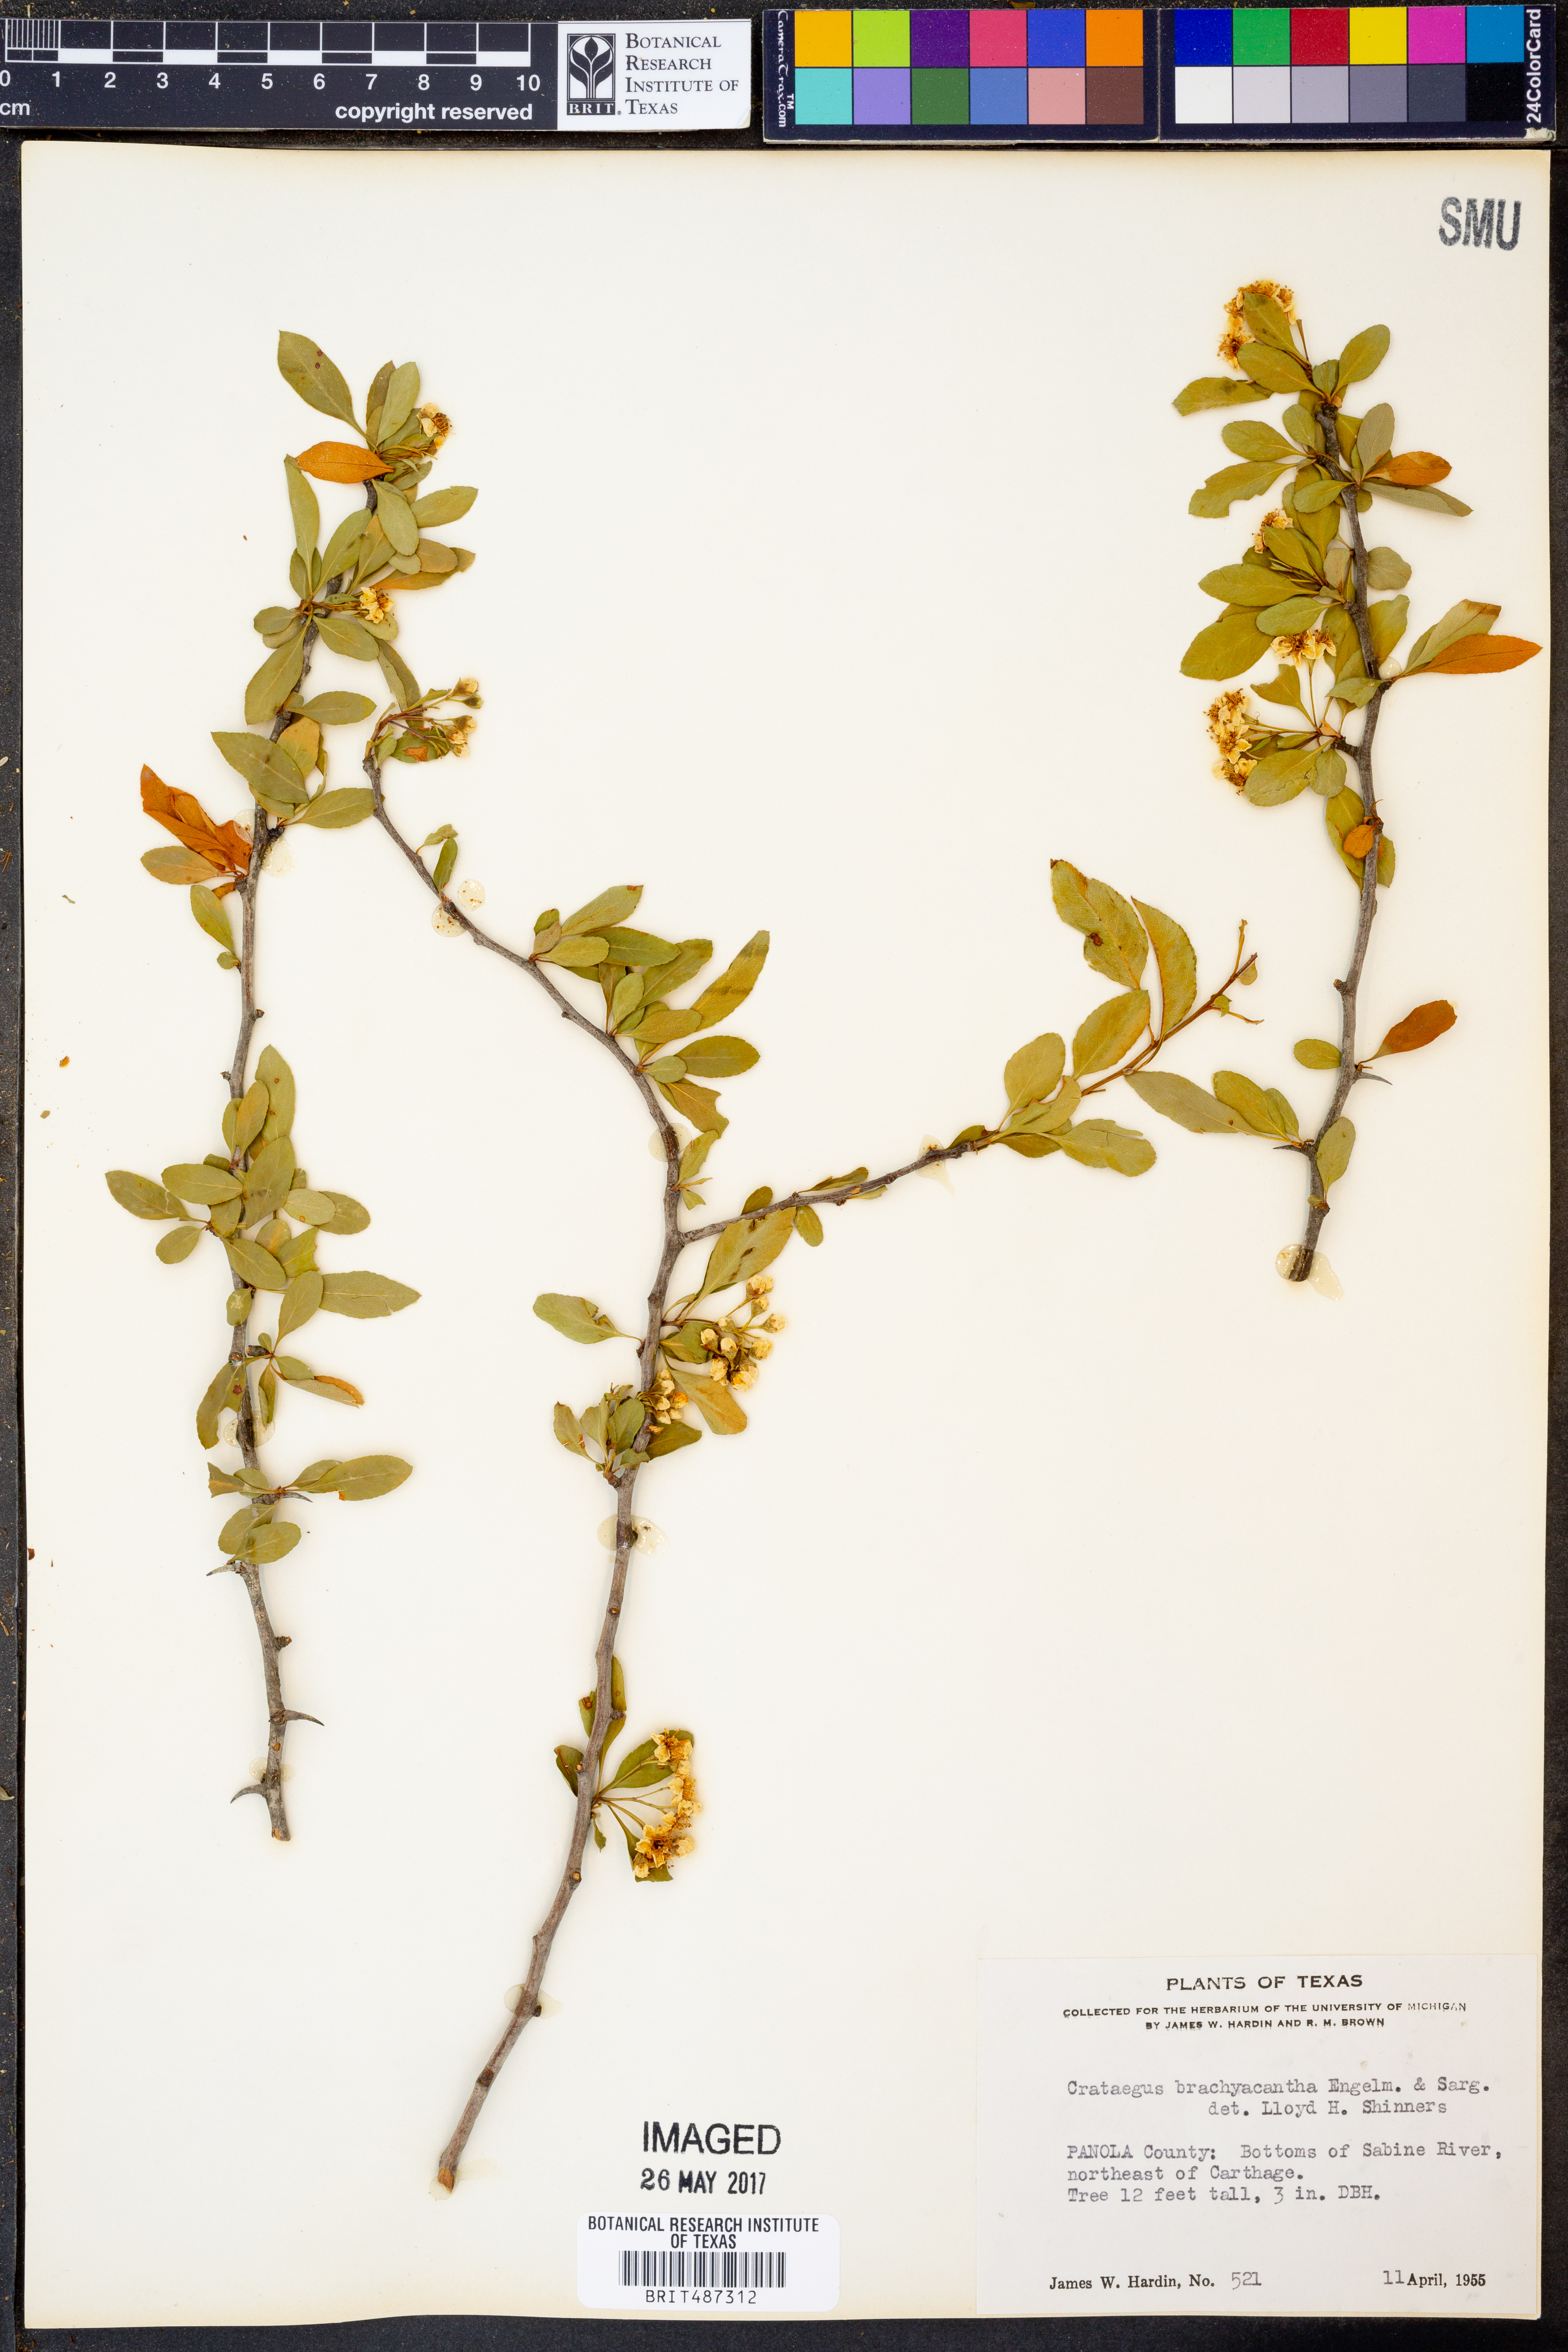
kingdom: Plantae
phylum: Tracheophyta
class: Magnoliopsida
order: Rosales
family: Rosaceae
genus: Crataegus
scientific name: Crataegus brachyacantha
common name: Blueberry-hawthorn
